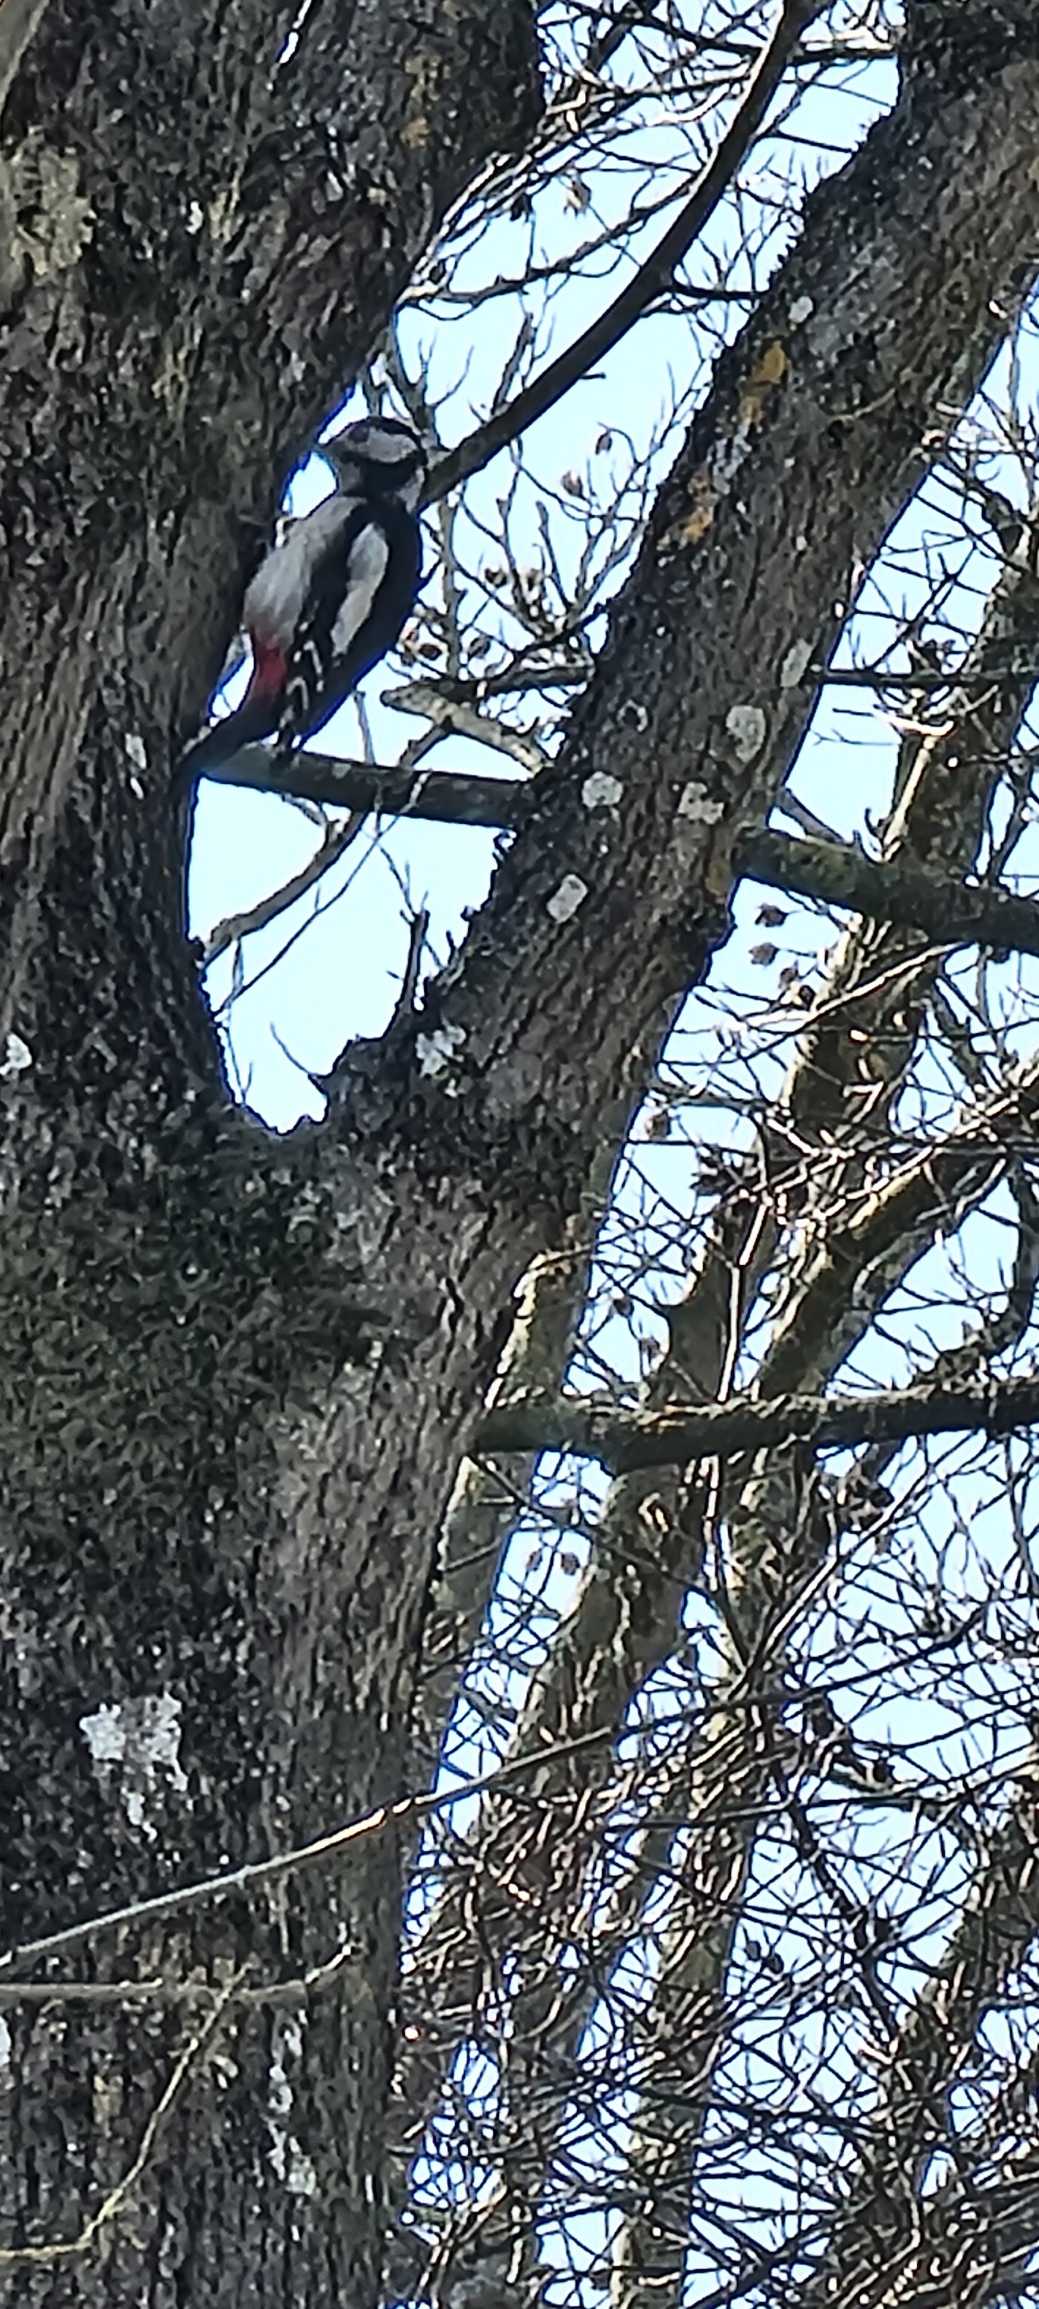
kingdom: Animalia
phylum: Chordata
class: Aves
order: Piciformes
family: Picidae
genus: Dendrocopos
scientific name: Dendrocopos major
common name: Stor flagspætte
